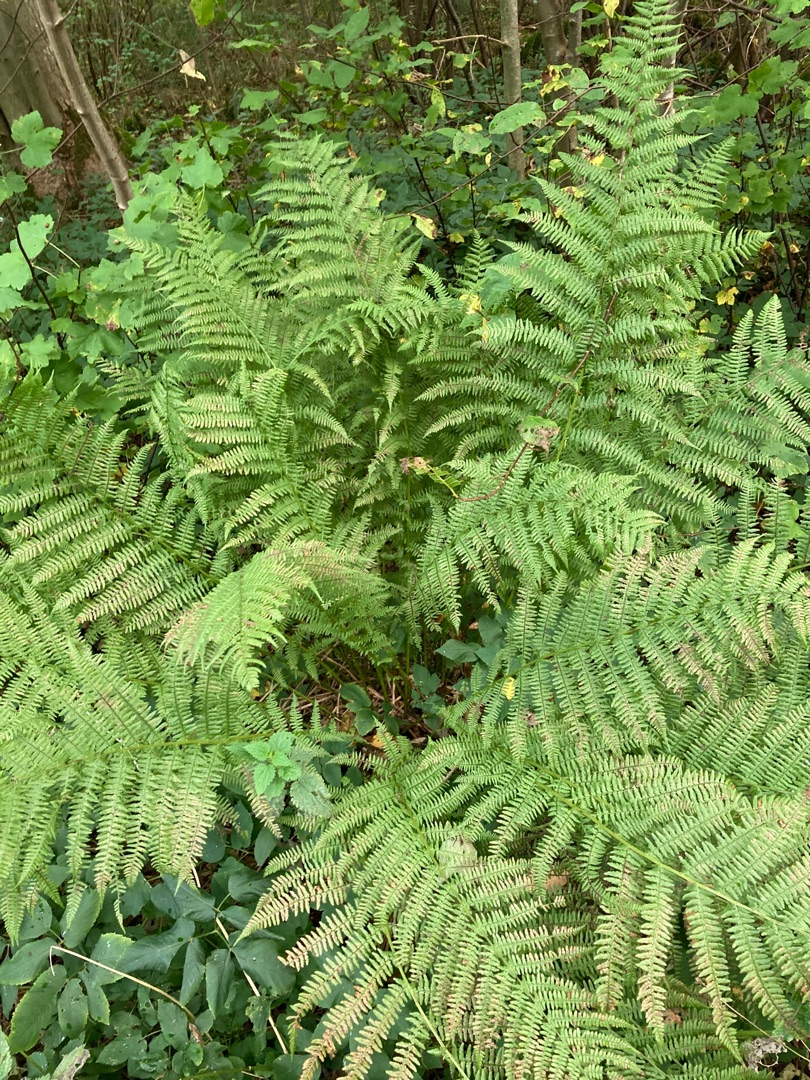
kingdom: Plantae
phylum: Tracheophyta
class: Polypodiopsida
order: Polypodiales
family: Athyriaceae
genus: Athyrium
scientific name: Athyrium filix-femina
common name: Fjerbregne
